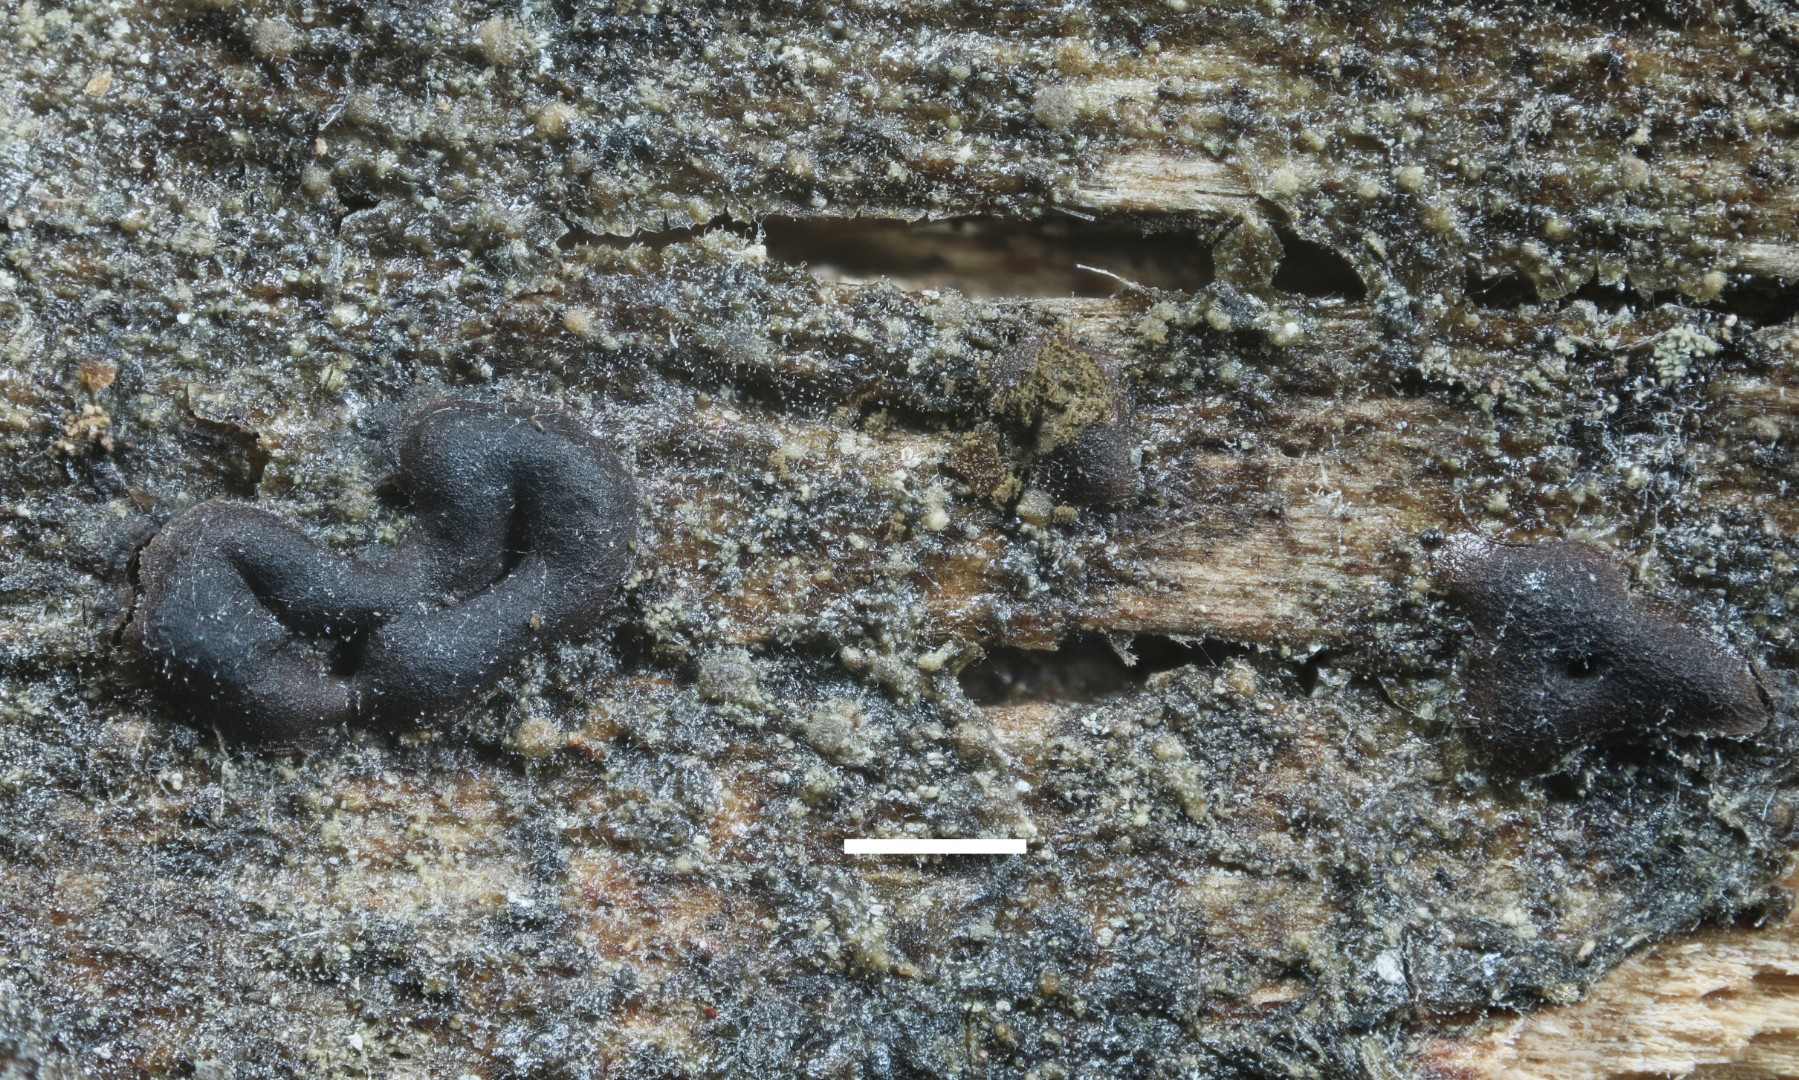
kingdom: Protozoa
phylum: Mycetozoa
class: Myxomycetes
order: Cribrariales
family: Liceaceae
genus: Licea
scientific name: Licea variabilis
